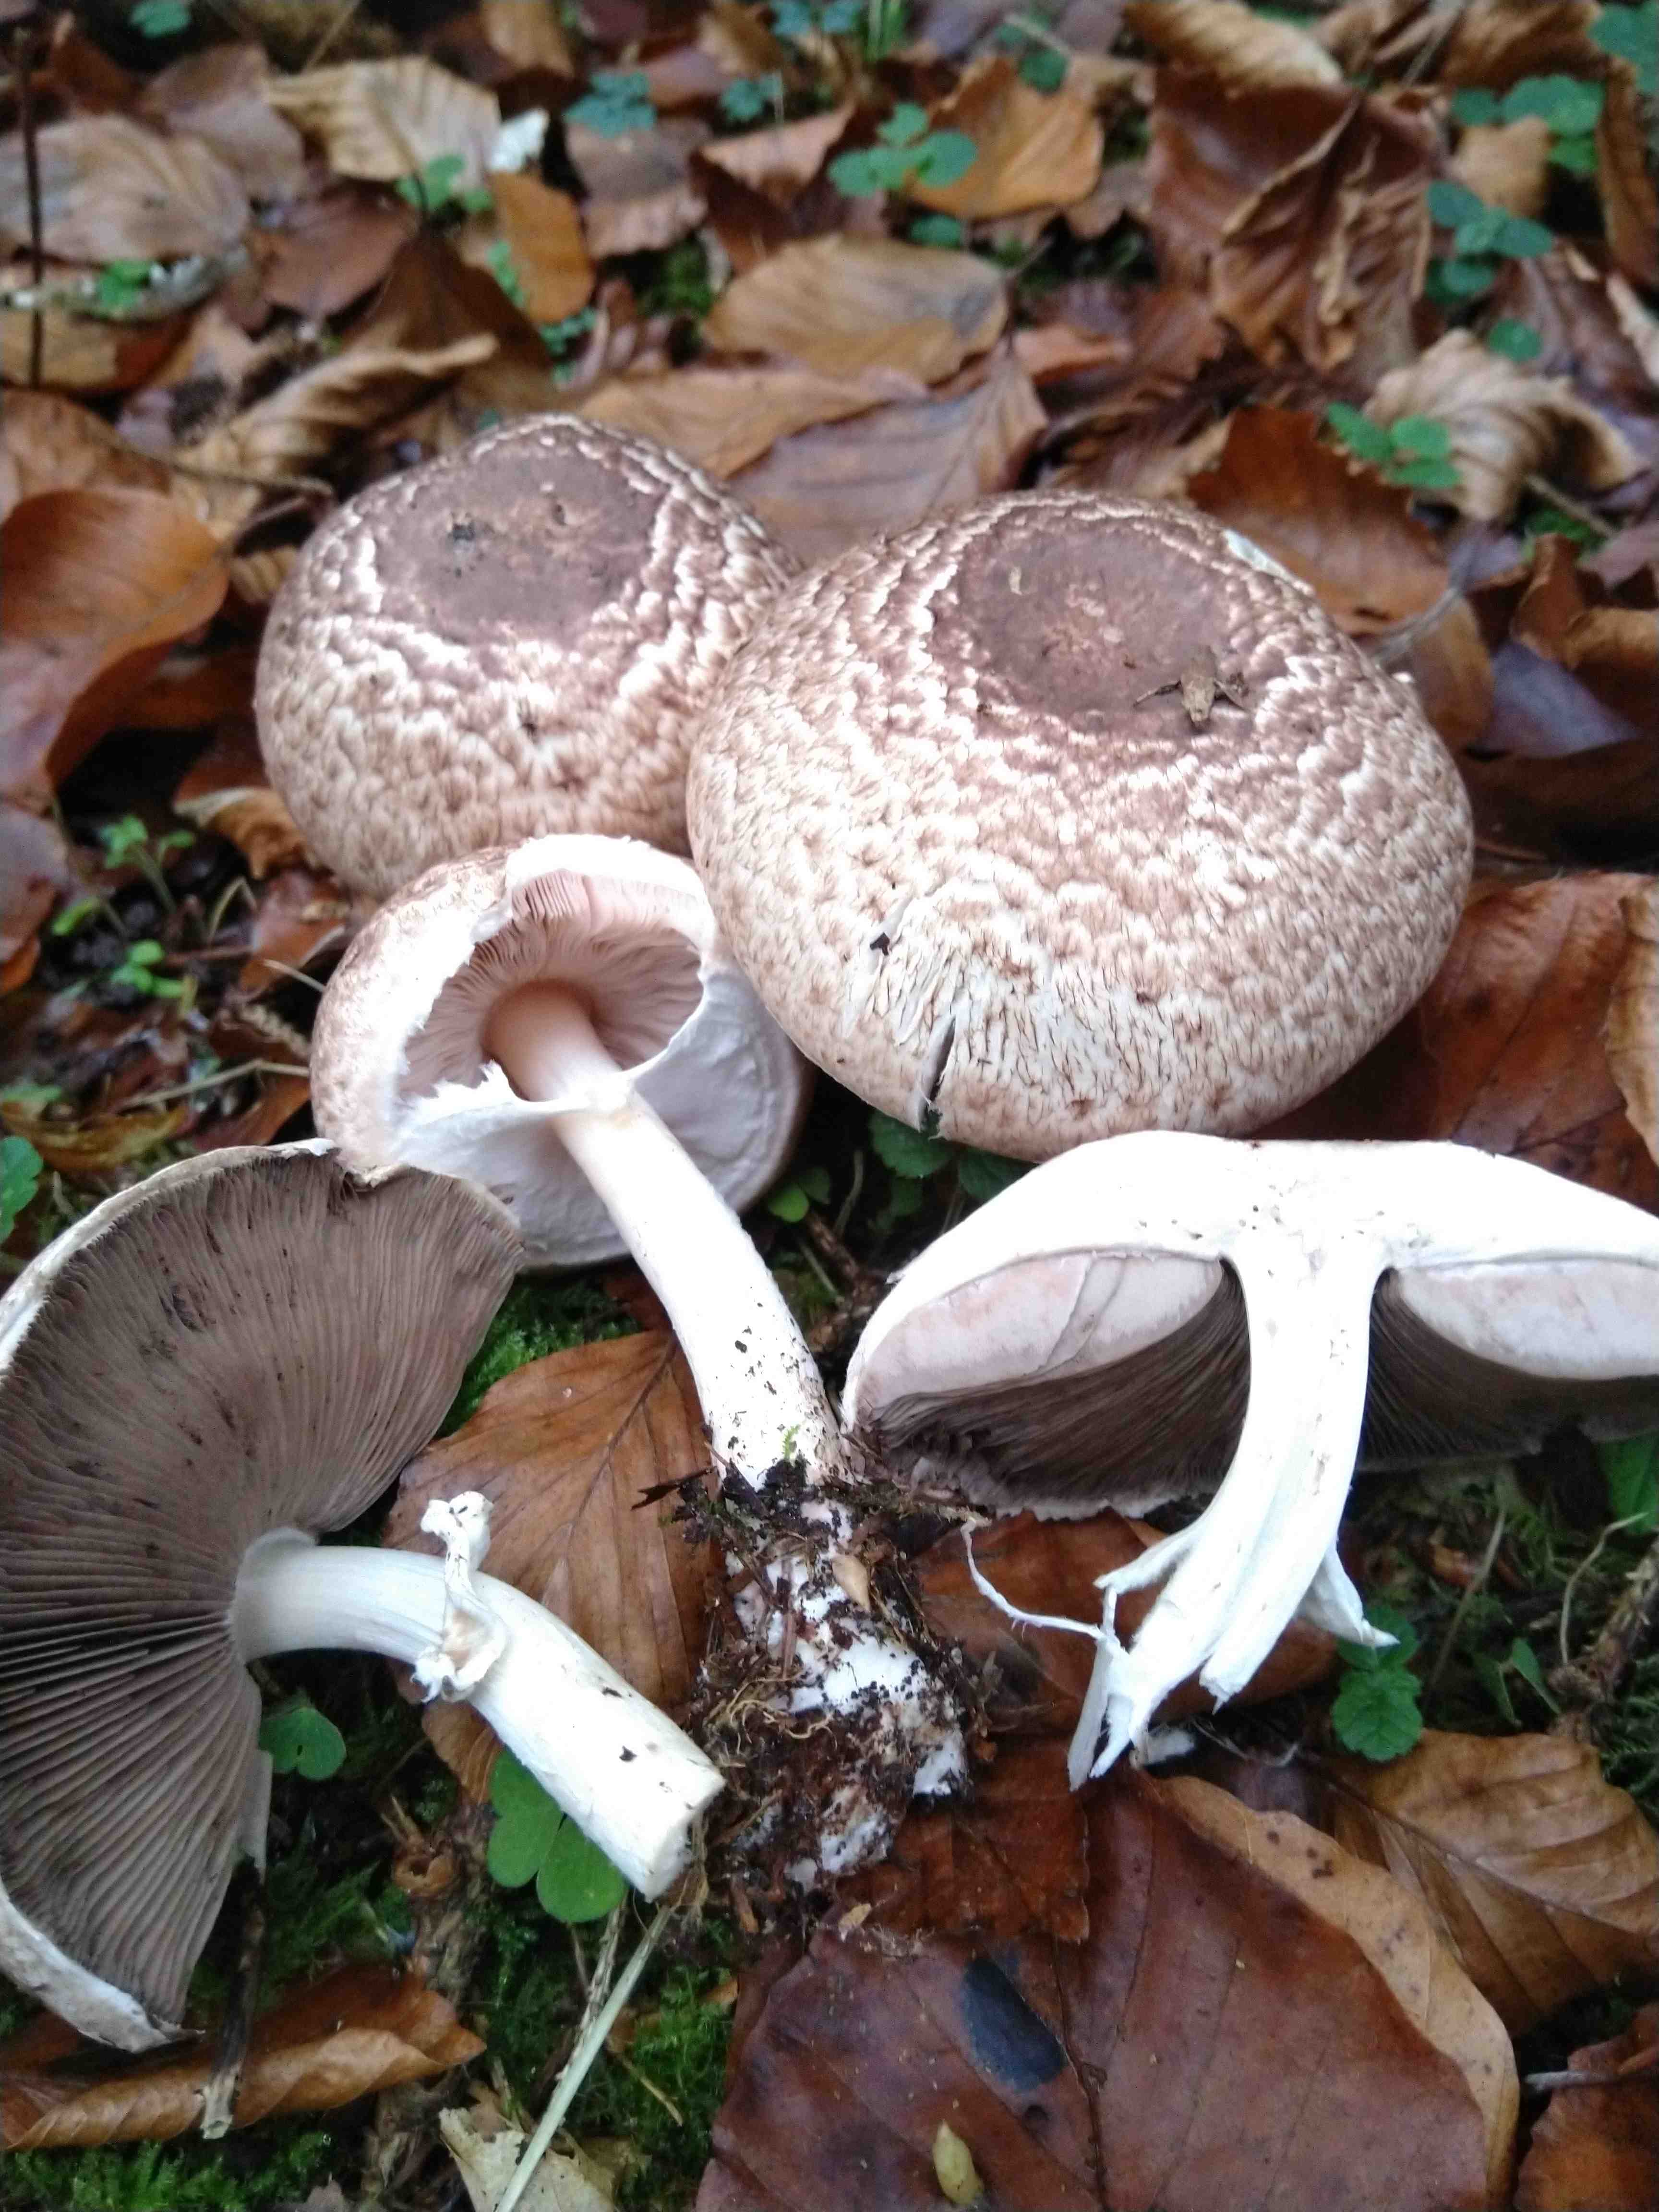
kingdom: Fungi
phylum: Basidiomycota
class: Agaricomycetes
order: Agaricales
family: Agaricaceae
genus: Agaricus
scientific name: Agaricus impudicus
